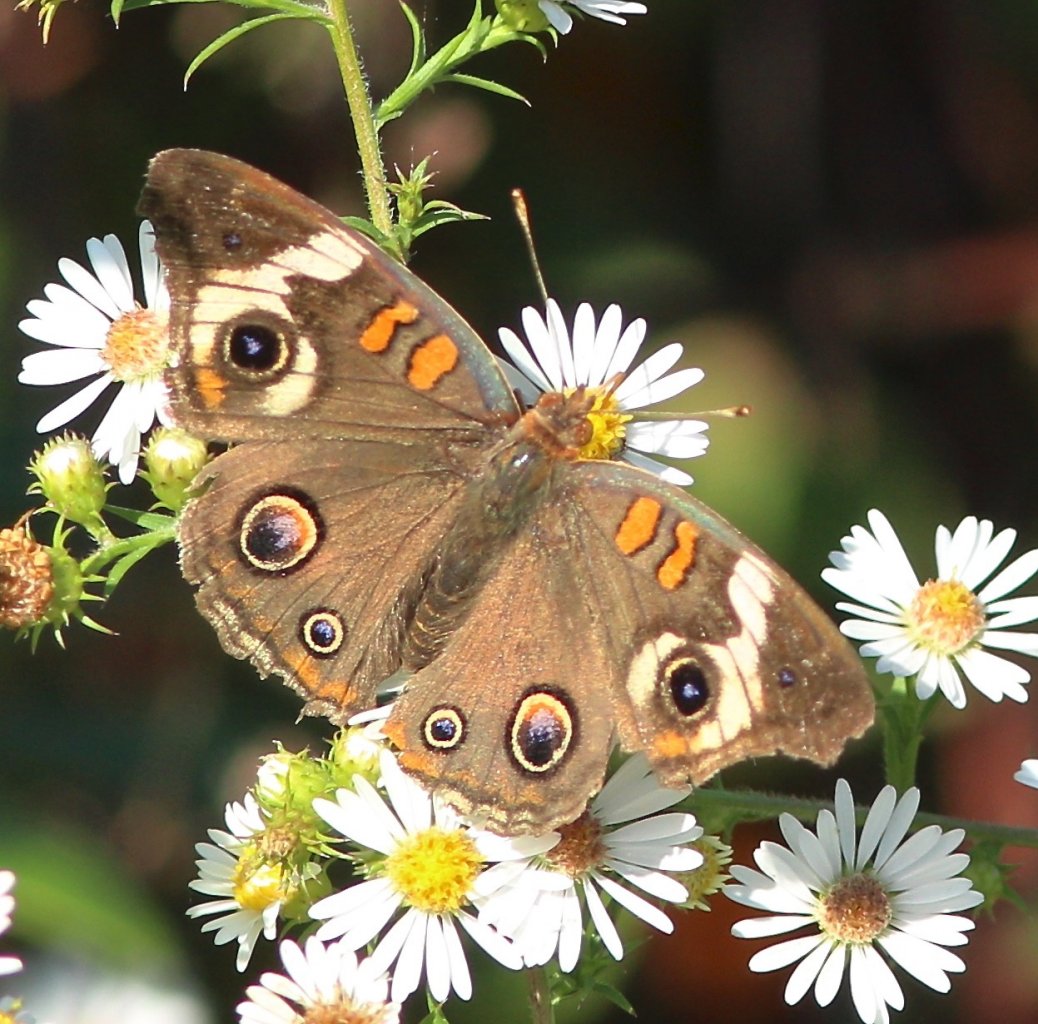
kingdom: Animalia
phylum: Arthropoda
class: Insecta
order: Lepidoptera
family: Nymphalidae
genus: Junonia
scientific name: Junonia coenia
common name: Common Buckeye
